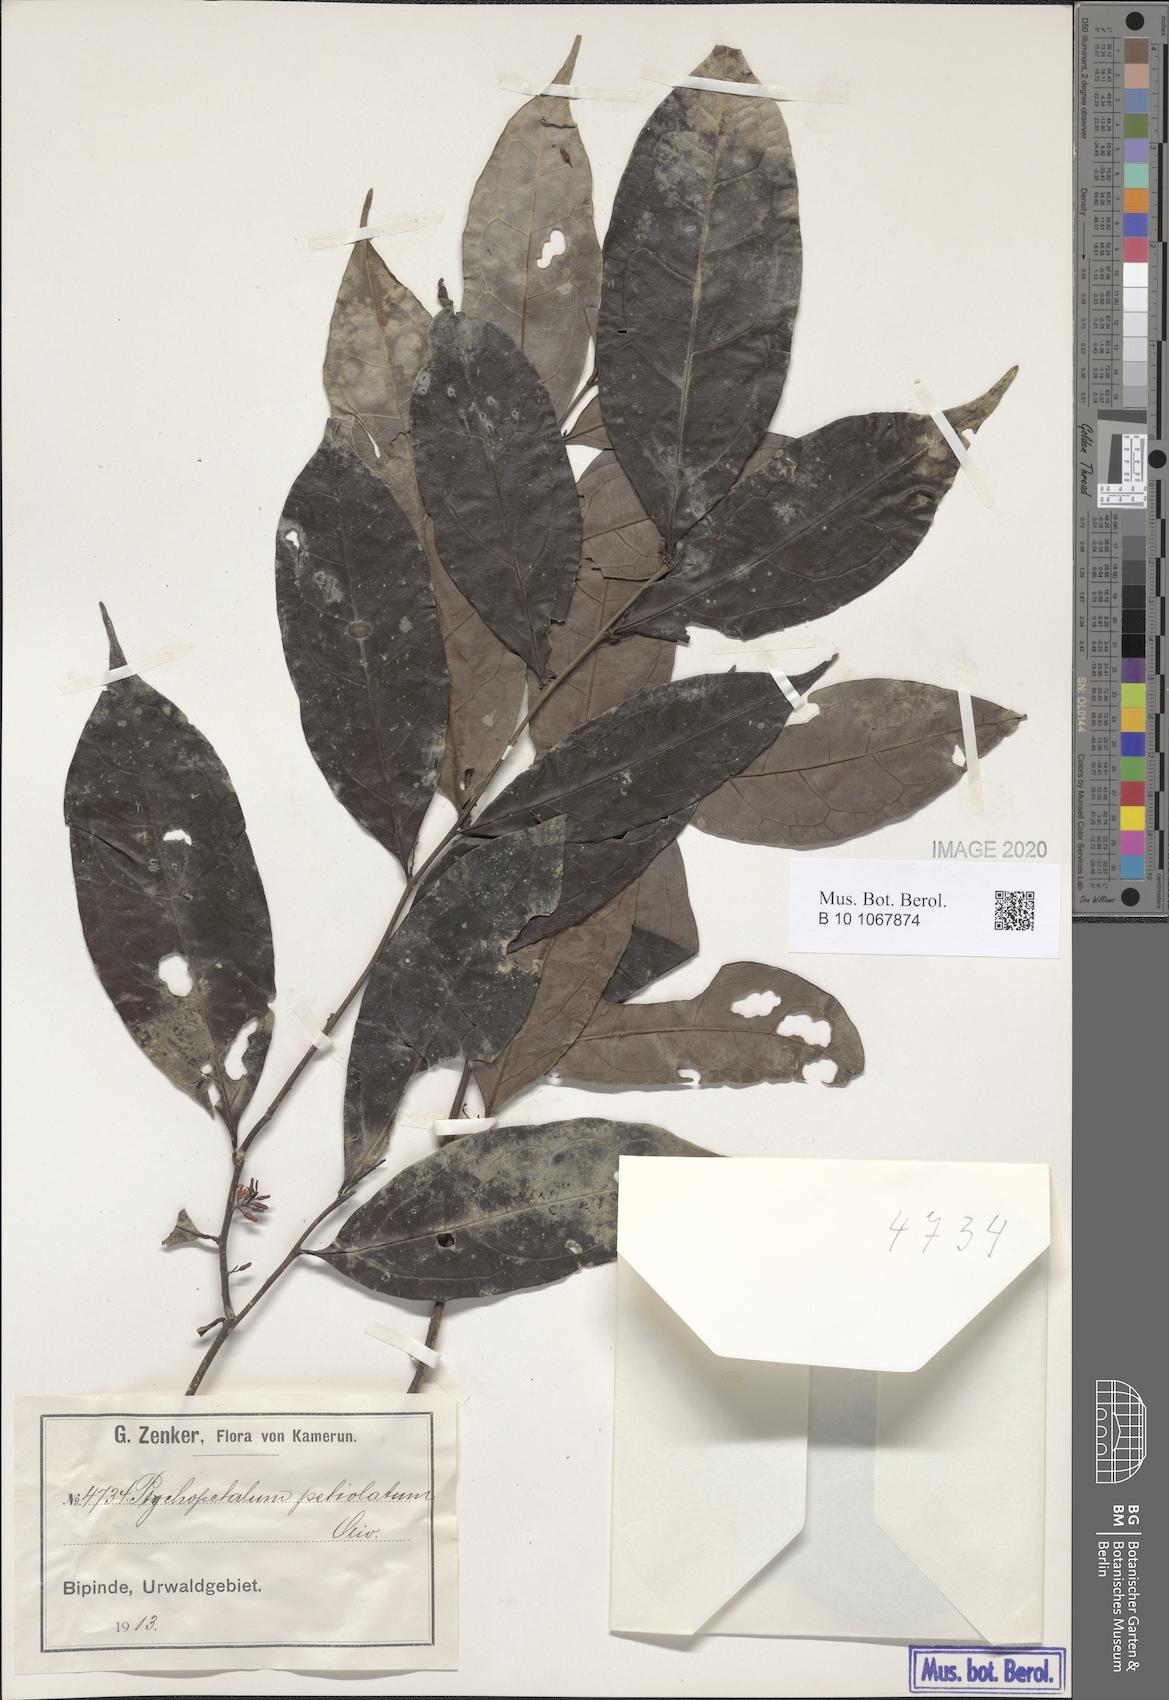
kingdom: Plantae
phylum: Tracheophyta
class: Magnoliopsida
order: Santalales
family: Olacaceae
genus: Ptychopetalum
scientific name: Ptychopetalum petiolatum
